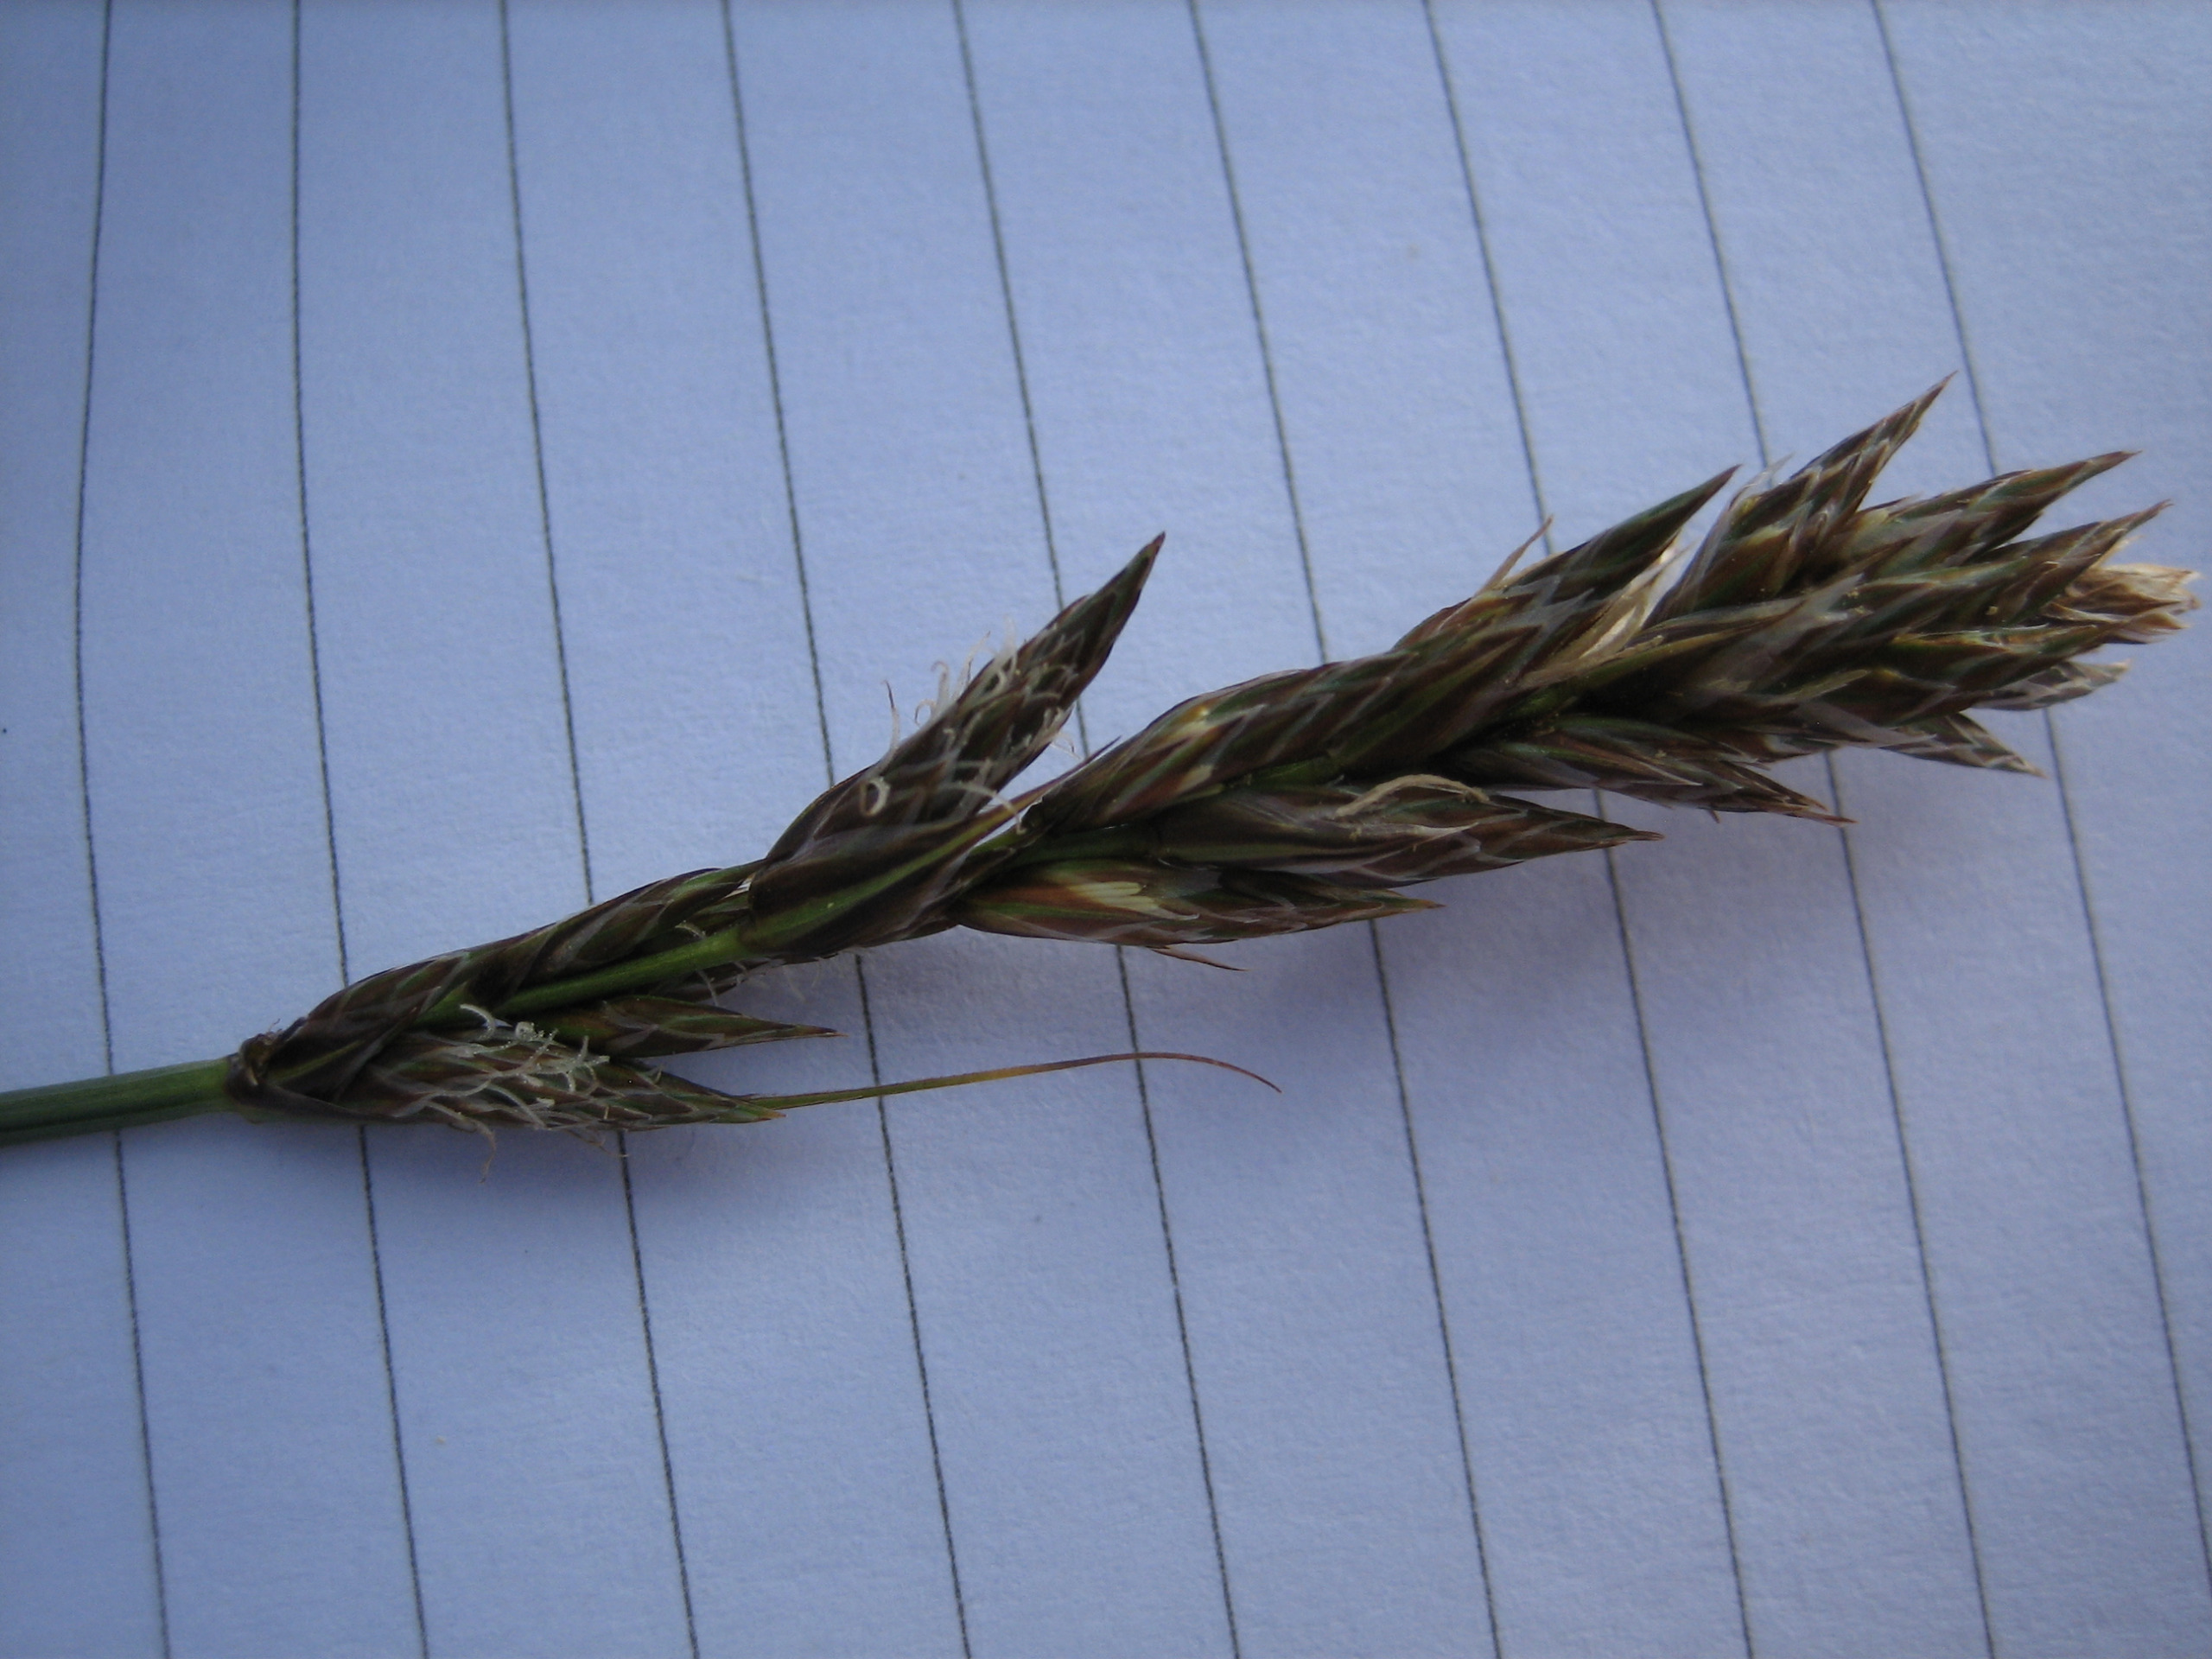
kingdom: Plantae
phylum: Tracheophyta
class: Liliopsida
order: Poales
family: Cyperaceae
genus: Carex
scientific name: Carex disticha
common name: Toradet star
